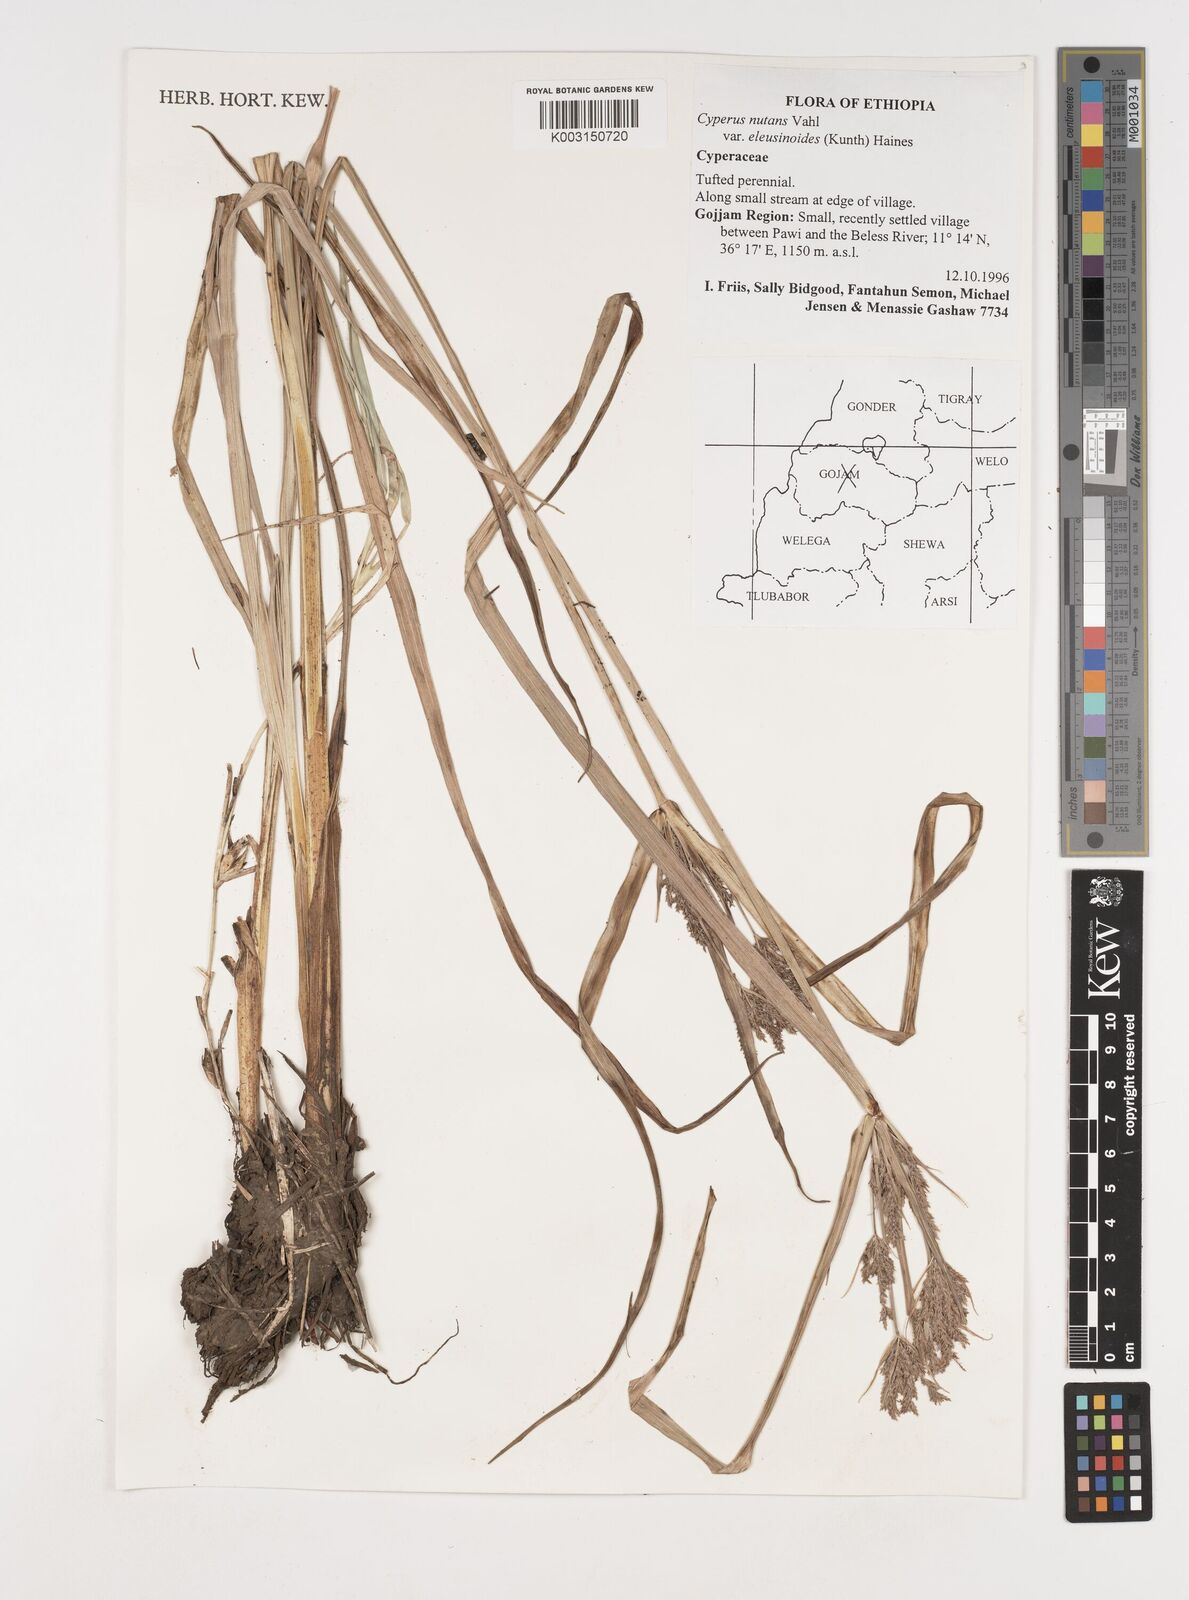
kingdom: Plantae
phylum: Tracheophyta
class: Liliopsida
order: Poales
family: Cyperaceae
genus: Cyperus
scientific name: Cyperus nutans
